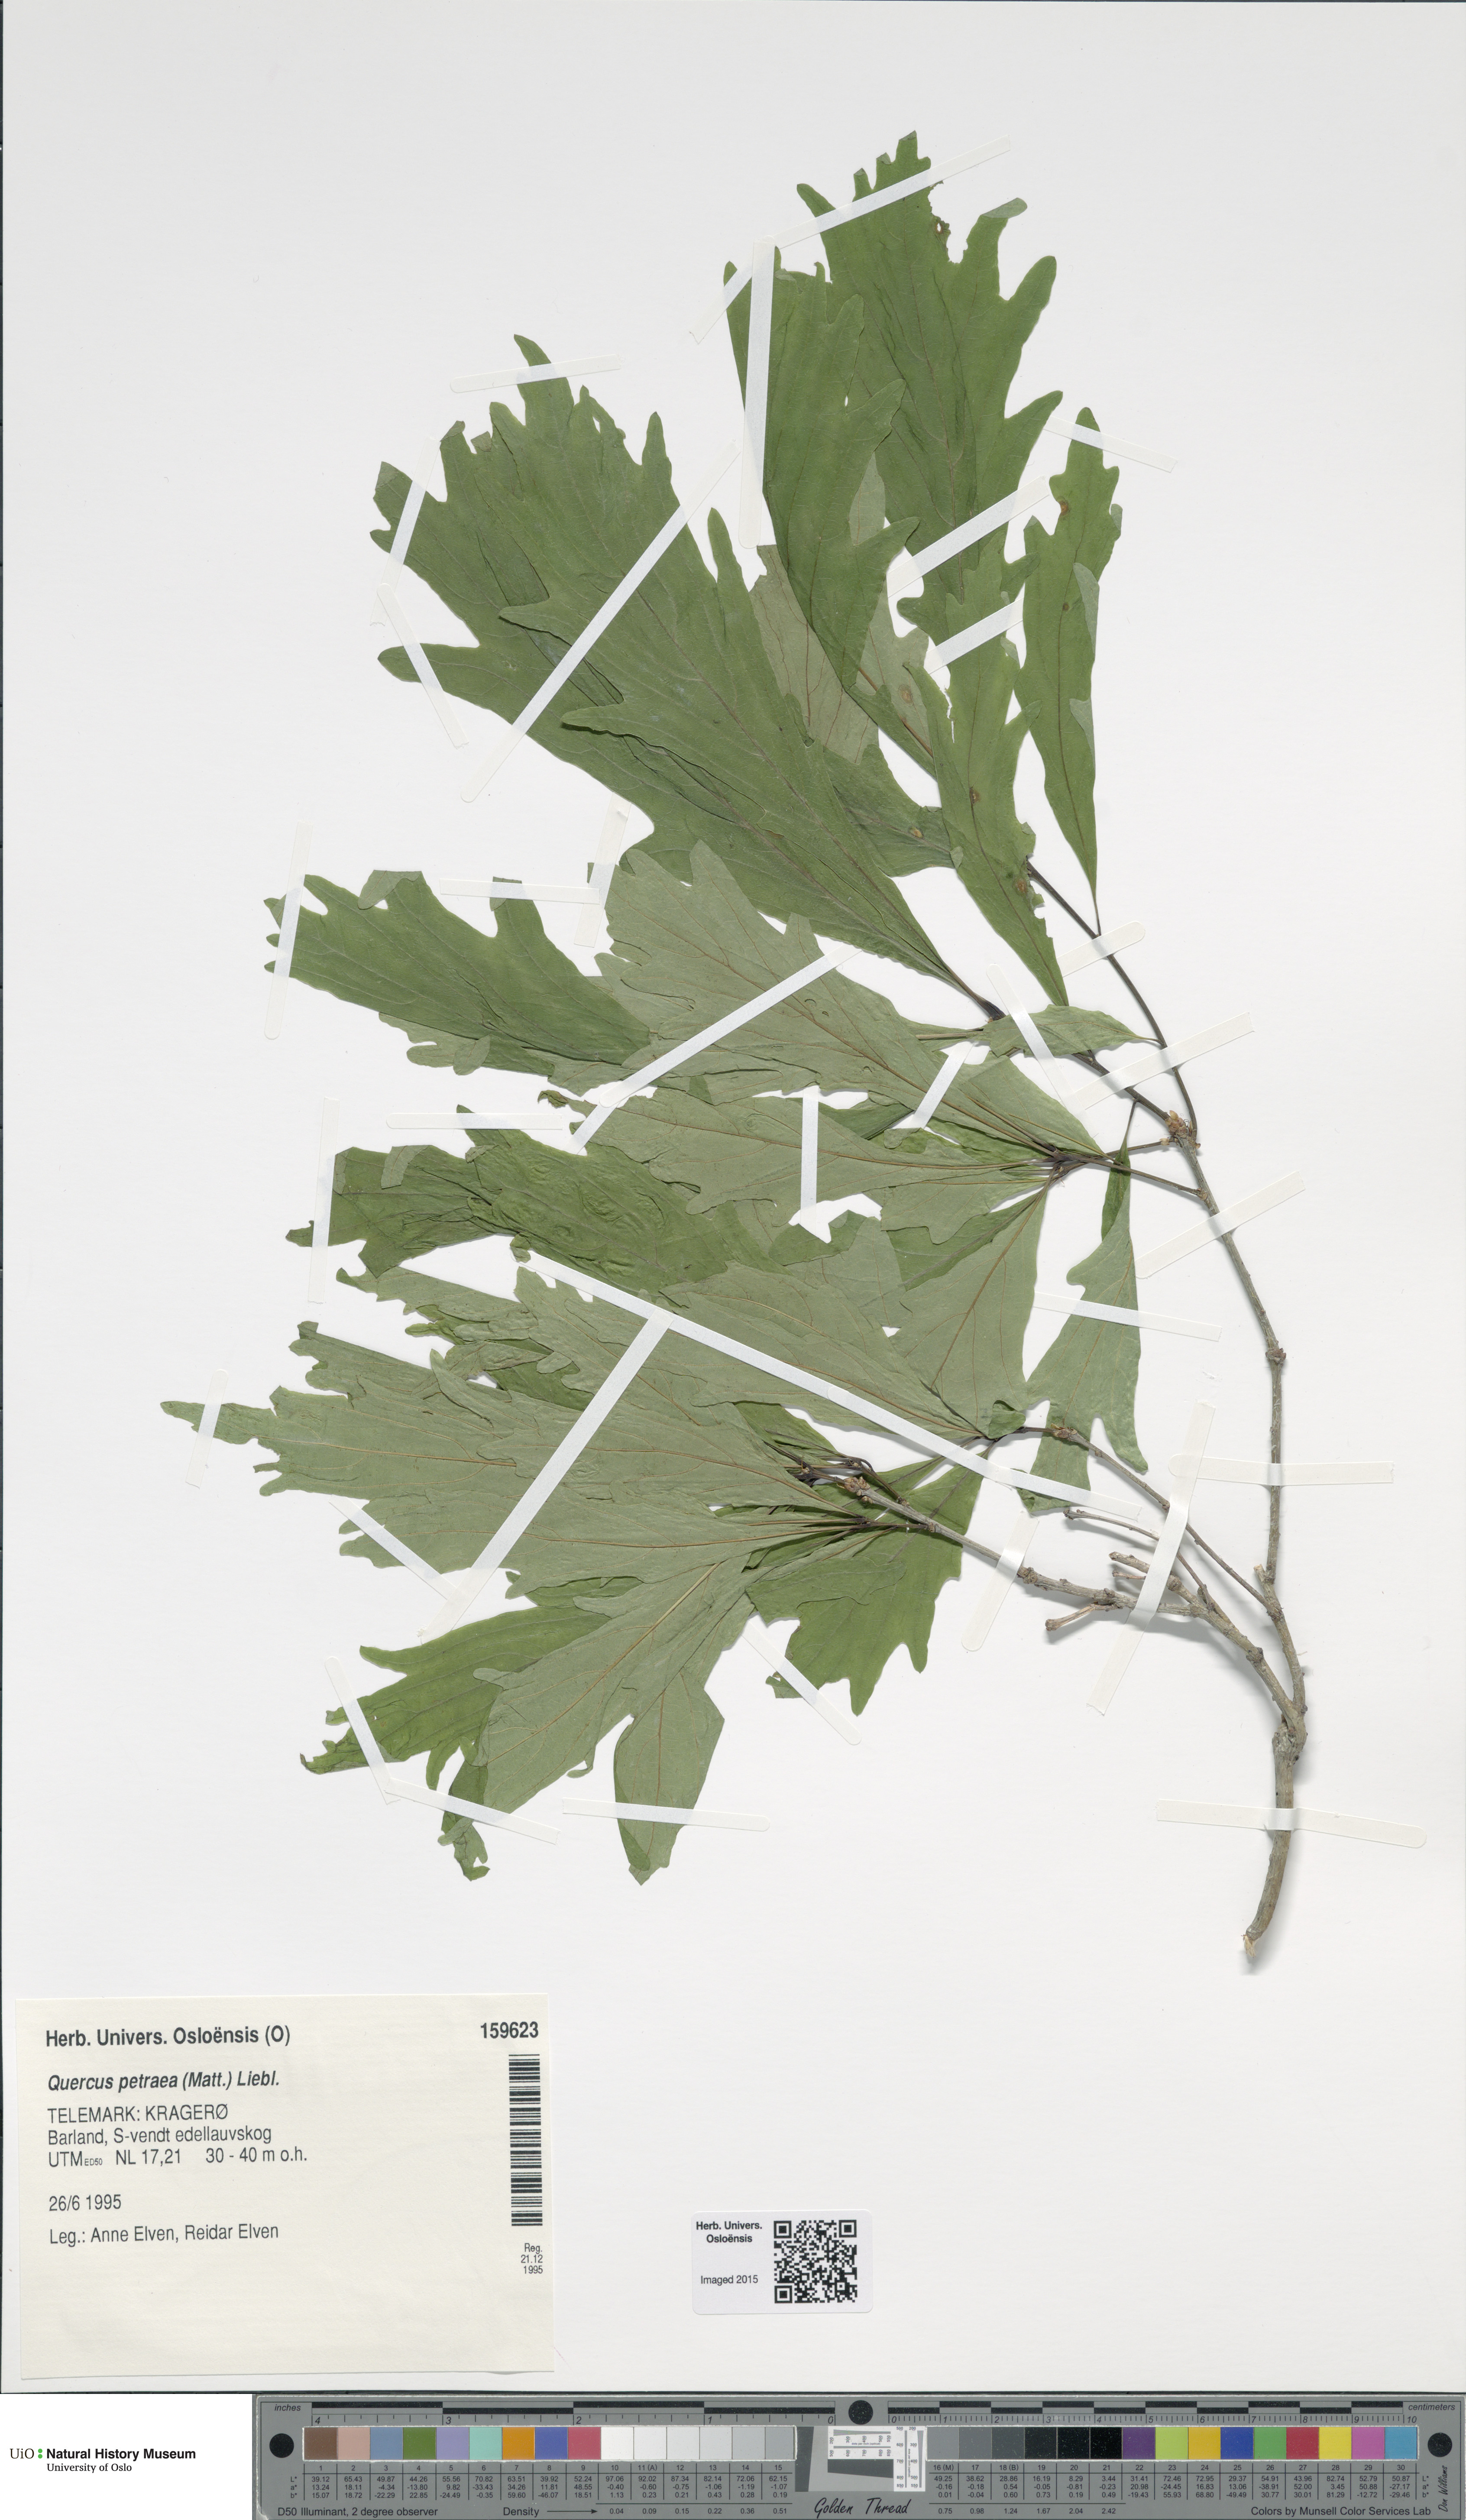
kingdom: Plantae
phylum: Tracheophyta
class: Magnoliopsida
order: Fagales
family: Fagaceae
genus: Quercus
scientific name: Quercus petraea
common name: Sessile oak
